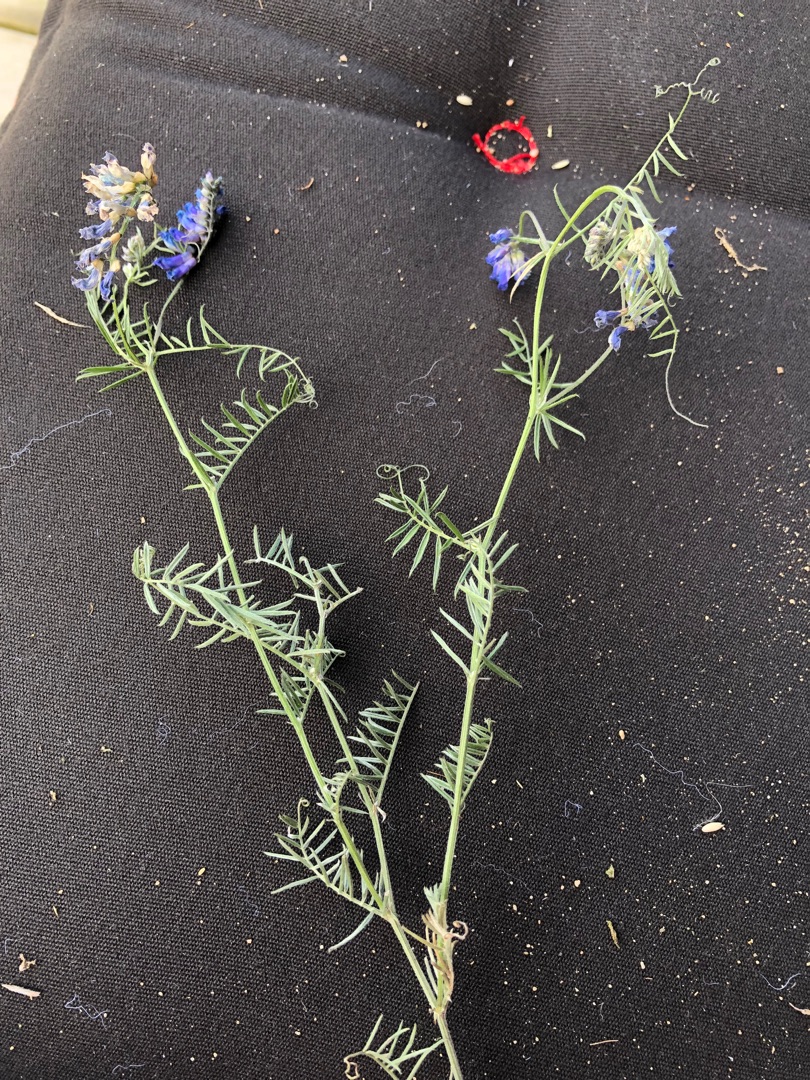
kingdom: Plantae
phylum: Tracheophyta
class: Magnoliopsida
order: Fabales
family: Fabaceae
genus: Vicia
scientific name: Vicia cracca
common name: Muse-vikke
